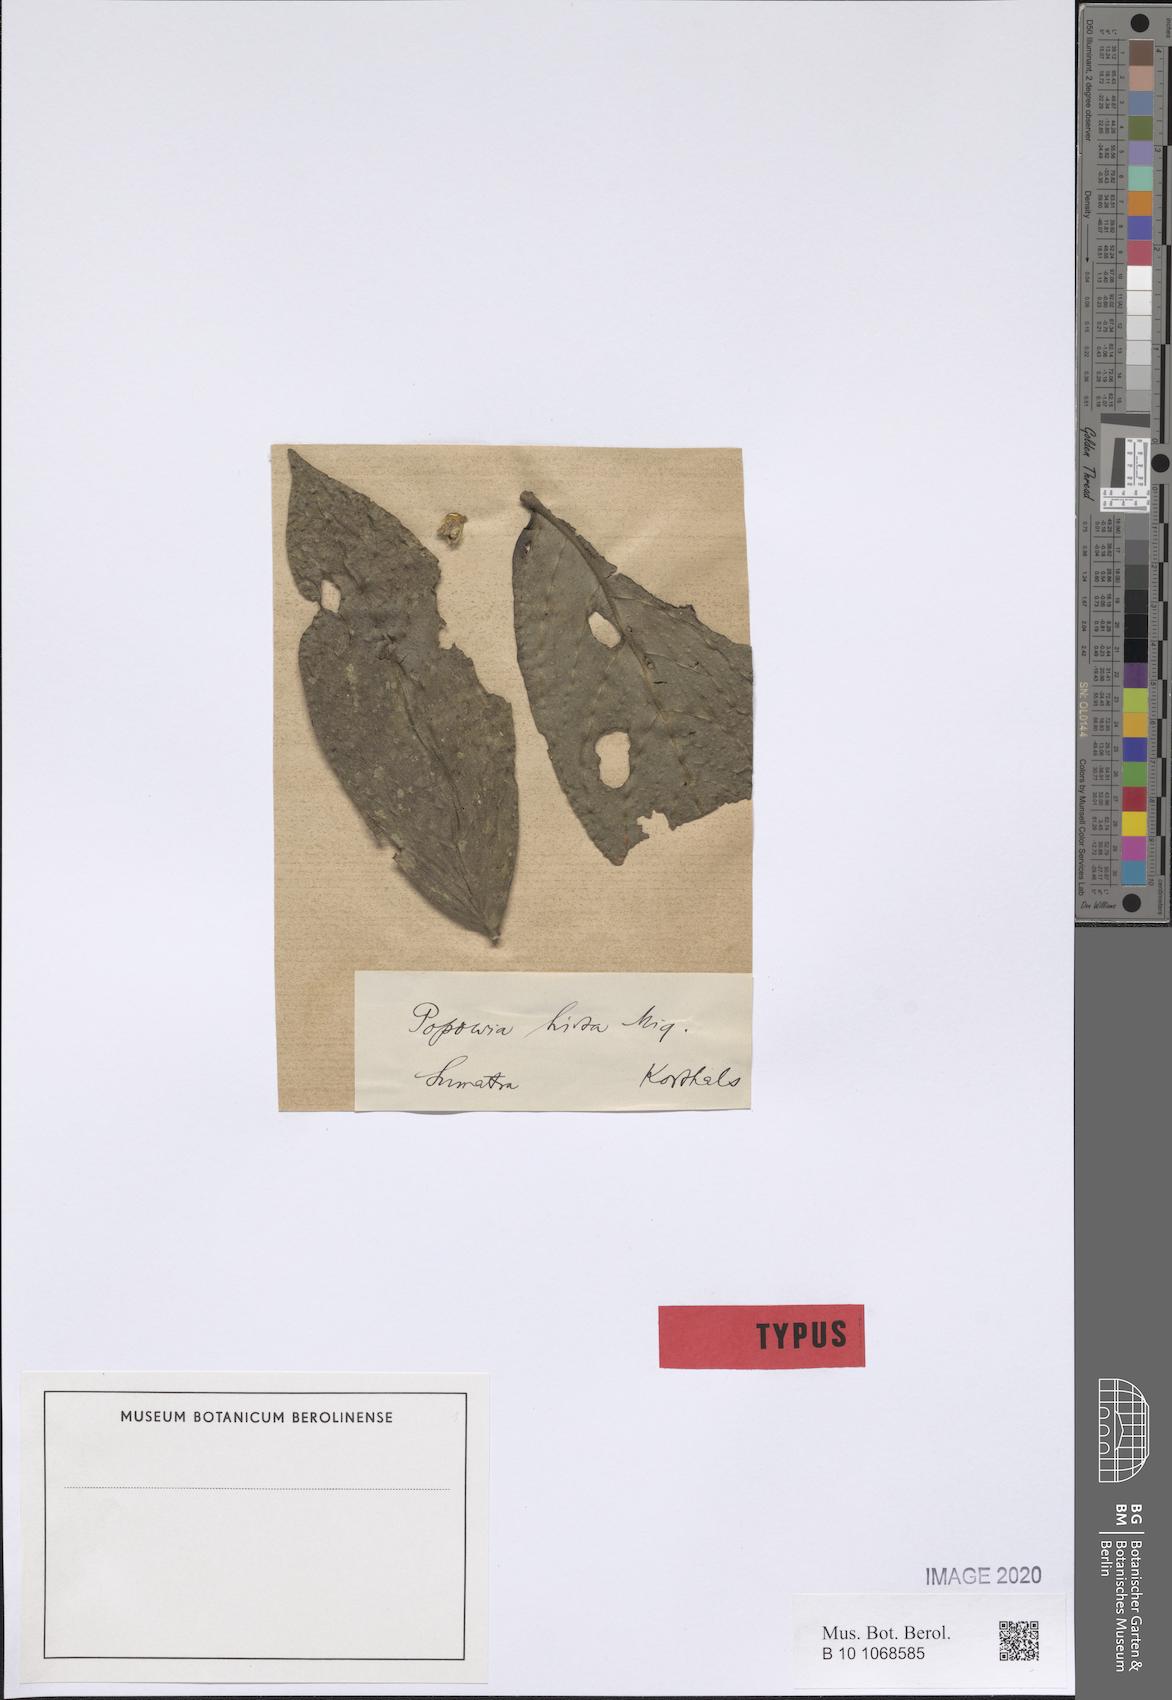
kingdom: Plantae
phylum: Tracheophyta
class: Magnoliopsida
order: Magnoliales
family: Annonaceae
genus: Popowia
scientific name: Popowia hirta
